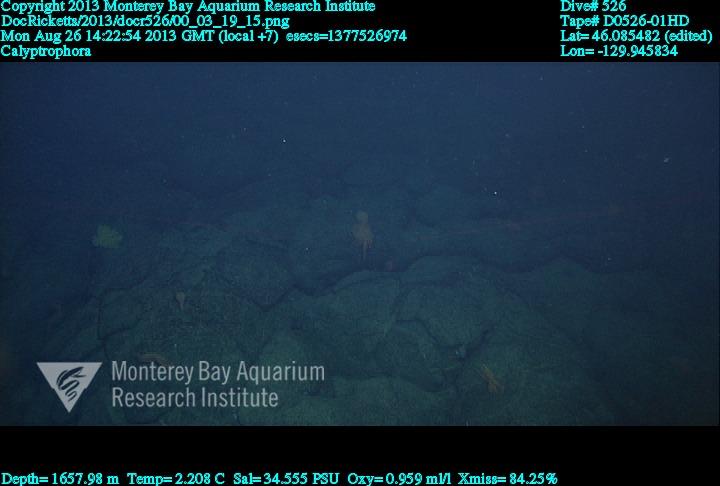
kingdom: Animalia
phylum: Cnidaria
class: Anthozoa
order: Scleralcyonacea
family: Primnoidae
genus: Calyptrophora
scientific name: Calyptrophora
